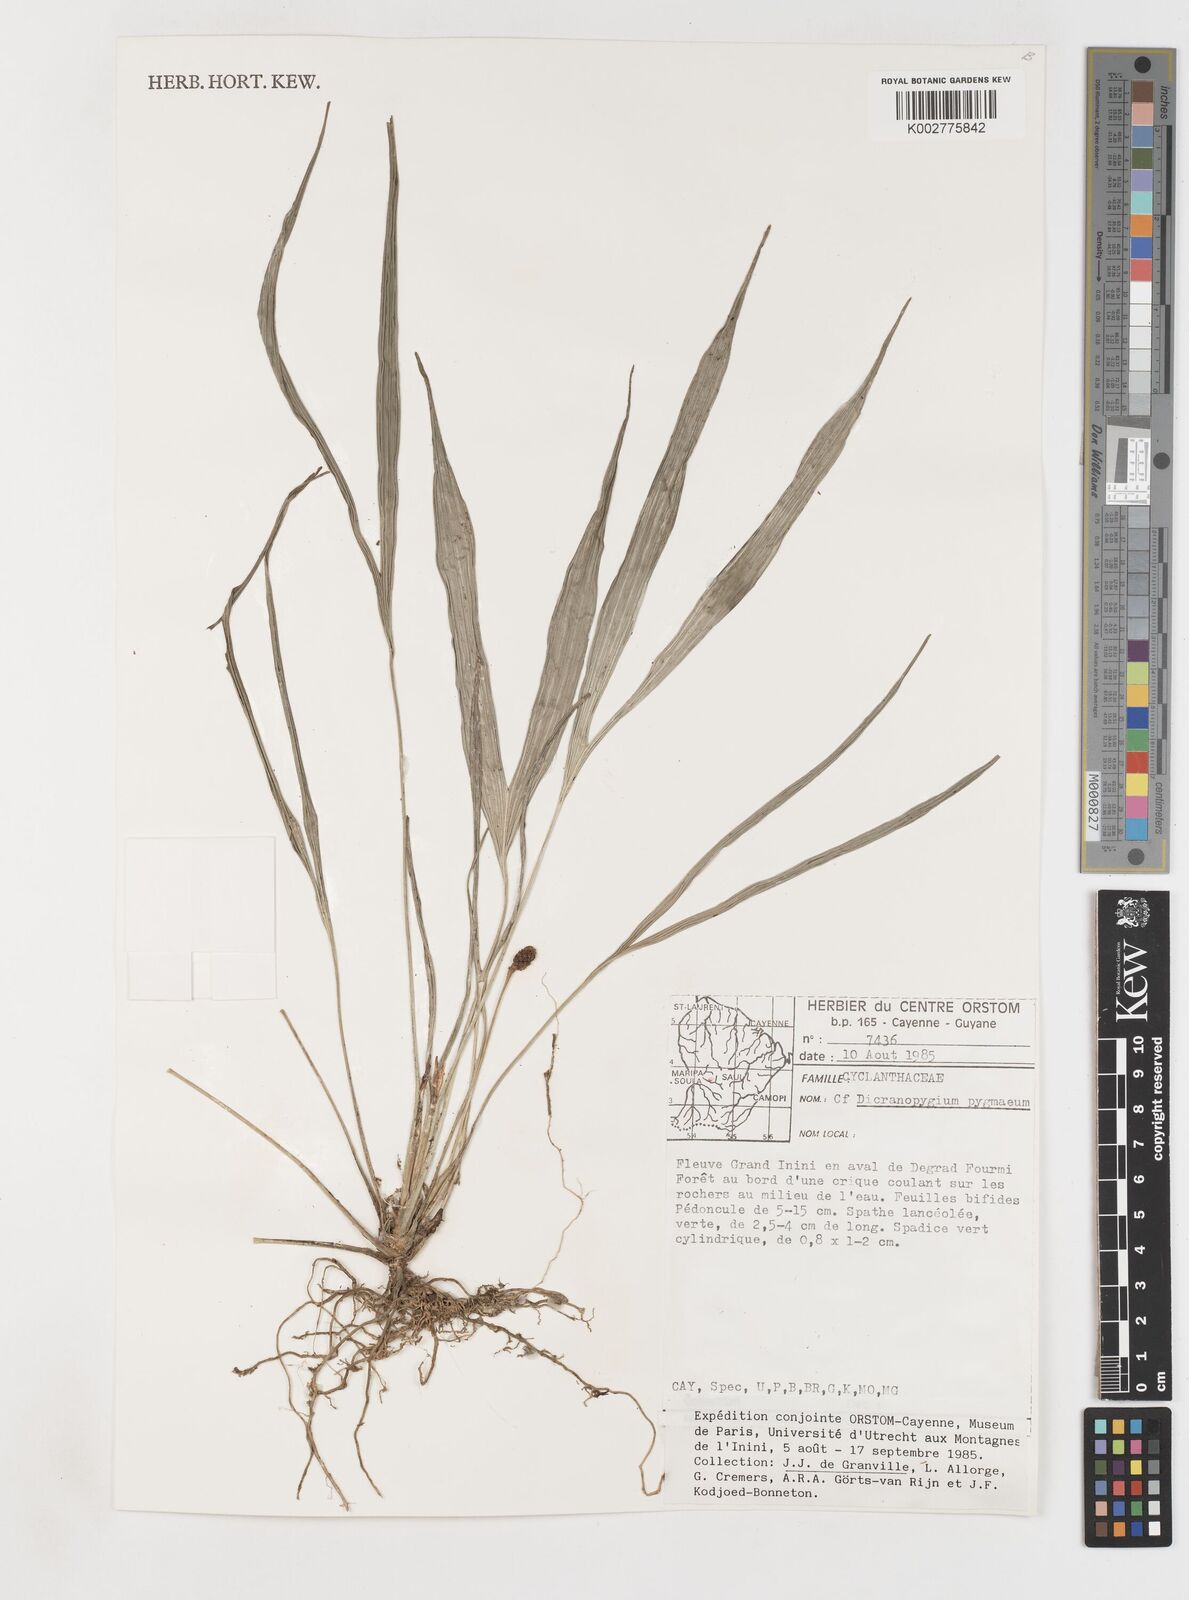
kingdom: Plantae
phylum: Tracheophyta
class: Liliopsida
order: Pandanales
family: Cyclanthaceae
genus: Dicranopygium
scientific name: Dicranopygium pygmaeum
